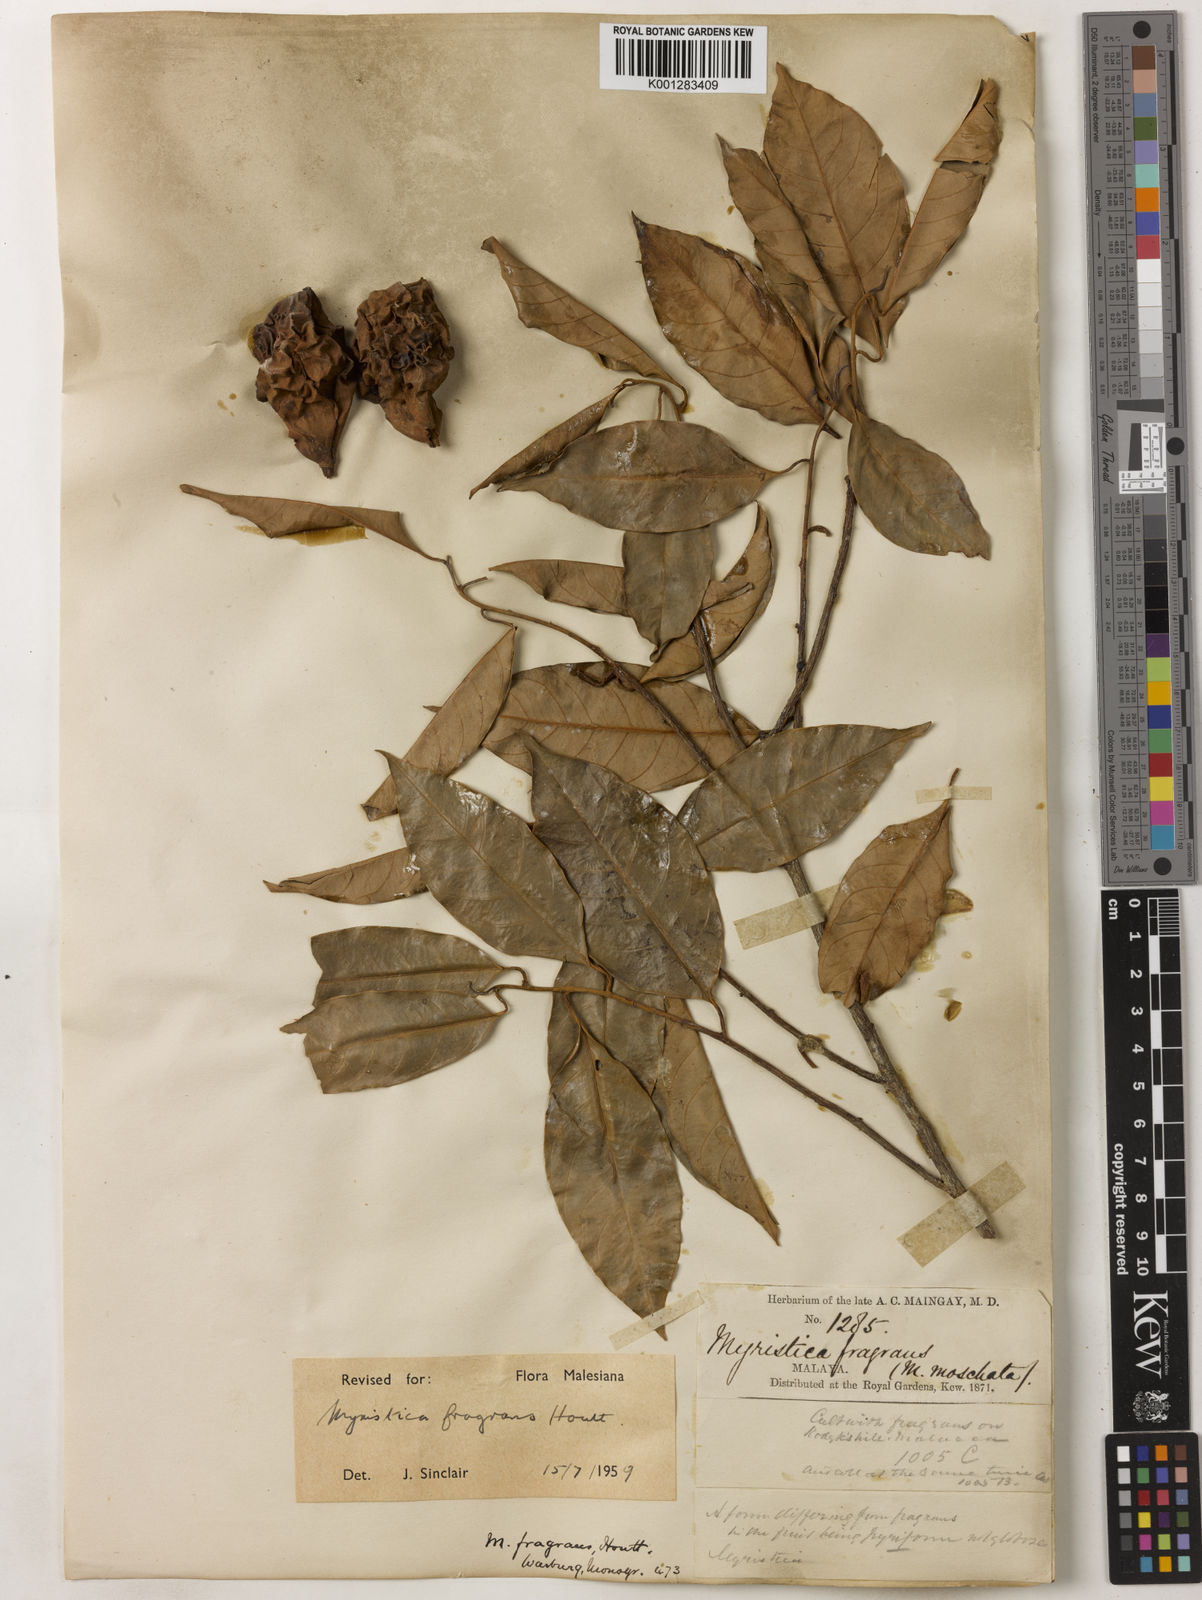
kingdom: Plantae
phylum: Tracheophyta
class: Magnoliopsida
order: Magnoliales
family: Myristicaceae
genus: Myristica
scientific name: Myristica fragrans
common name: Nutmeg
